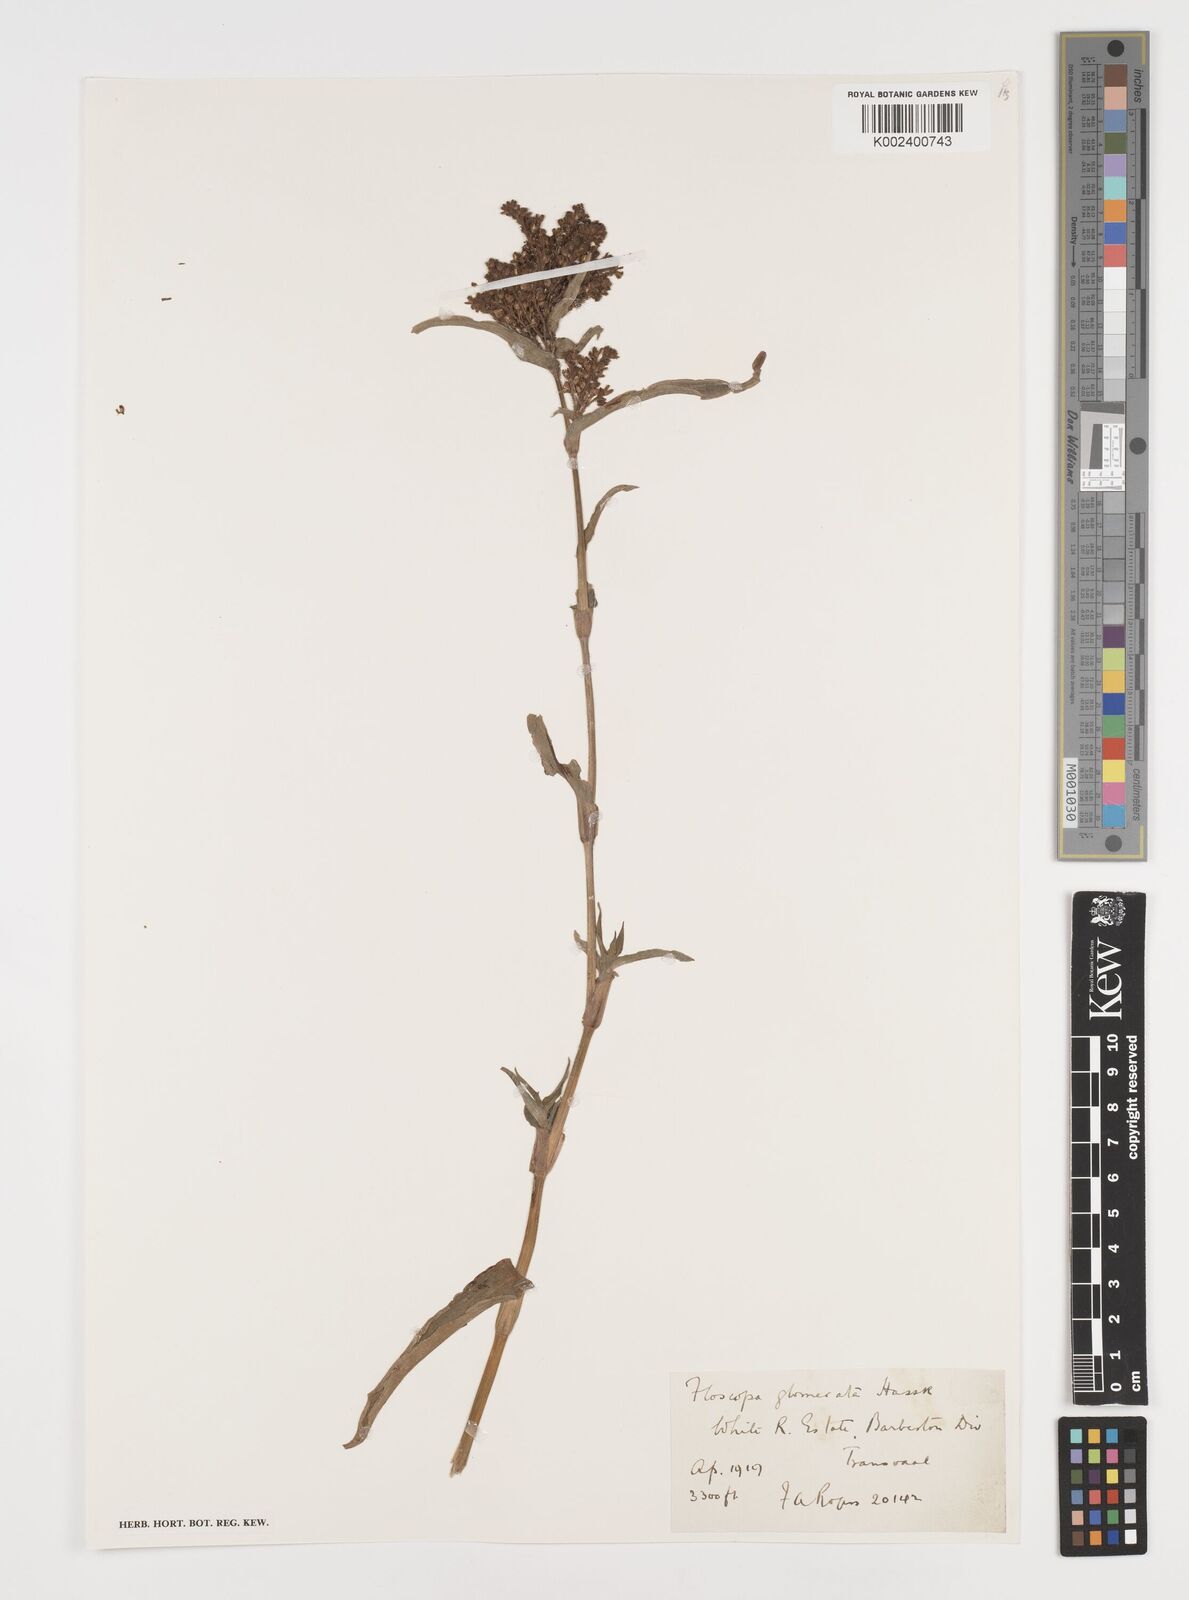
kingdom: Plantae
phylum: Tracheophyta
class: Liliopsida
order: Commelinales
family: Commelinaceae
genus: Floscopa
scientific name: Floscopa glomerata
